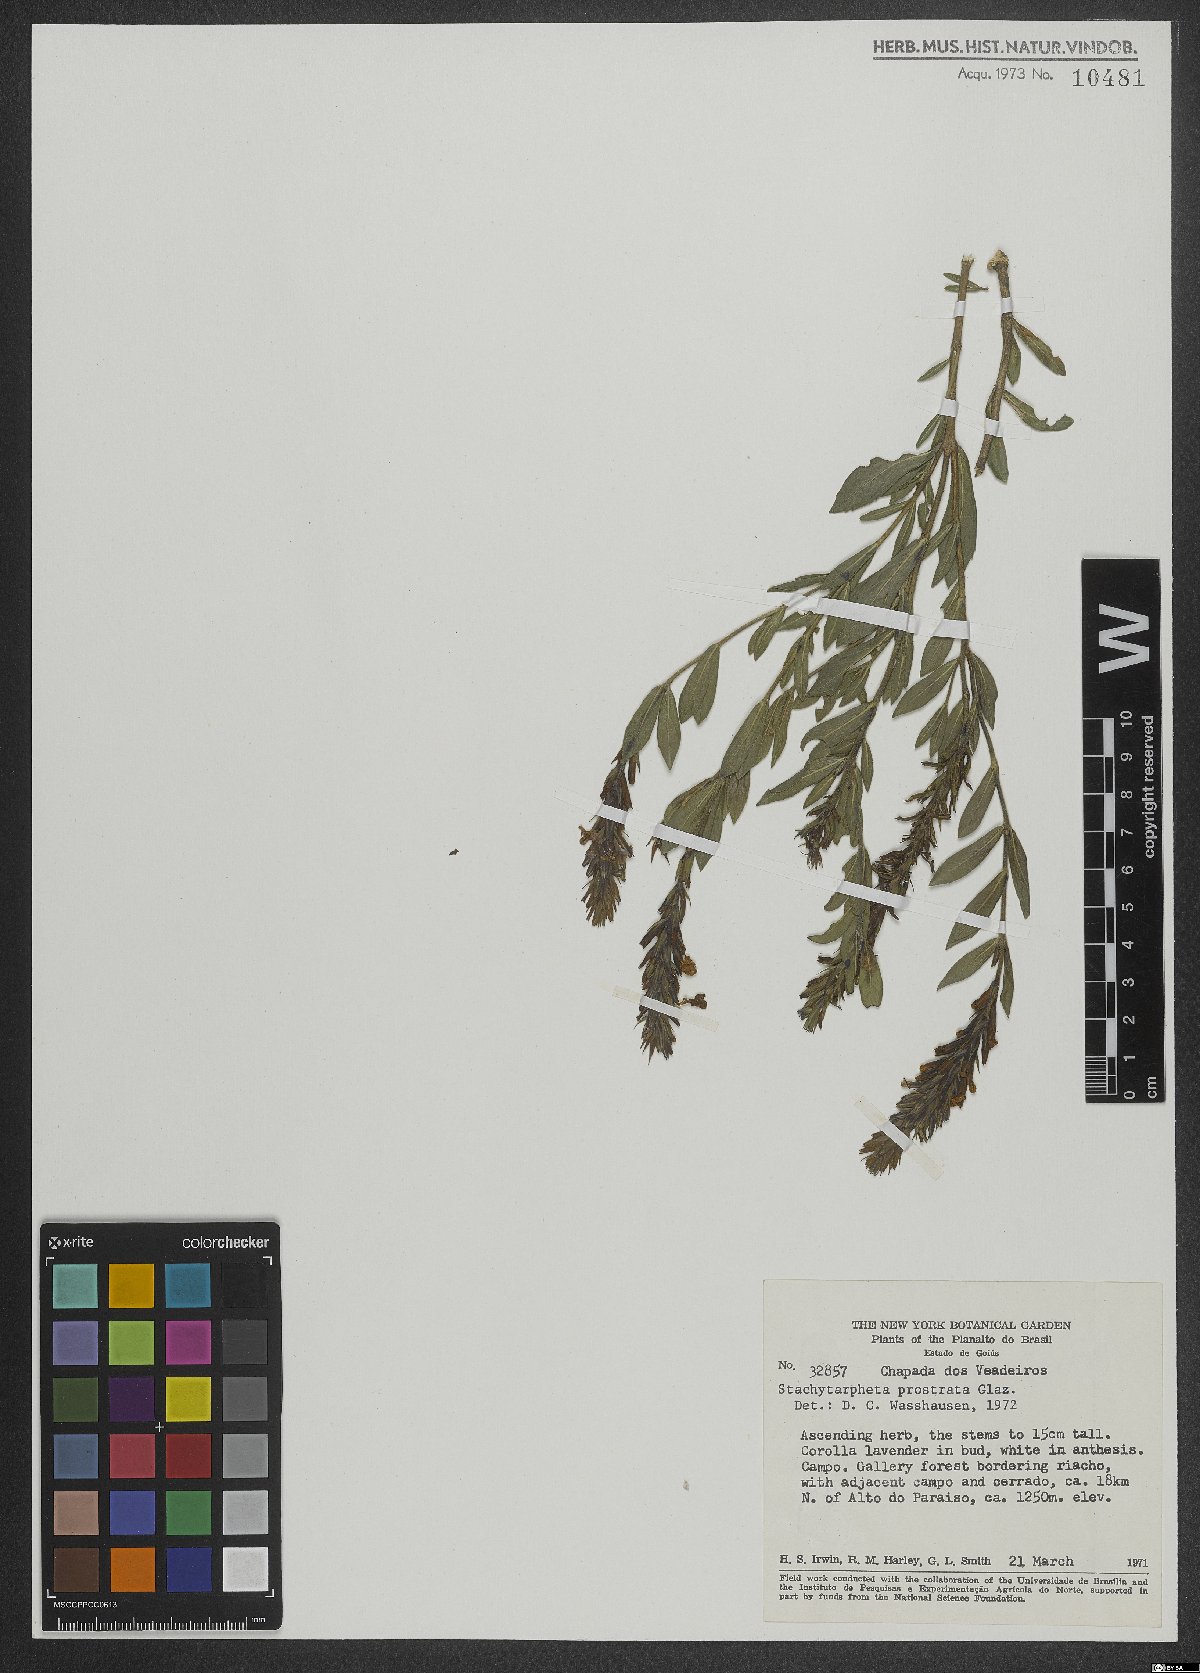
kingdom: Plantae
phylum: Tracheophyta
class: Magnoliopsida
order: Lamiales
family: Verbenaceae
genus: Stachytarpheta
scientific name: Stachytarpheta prostrata
